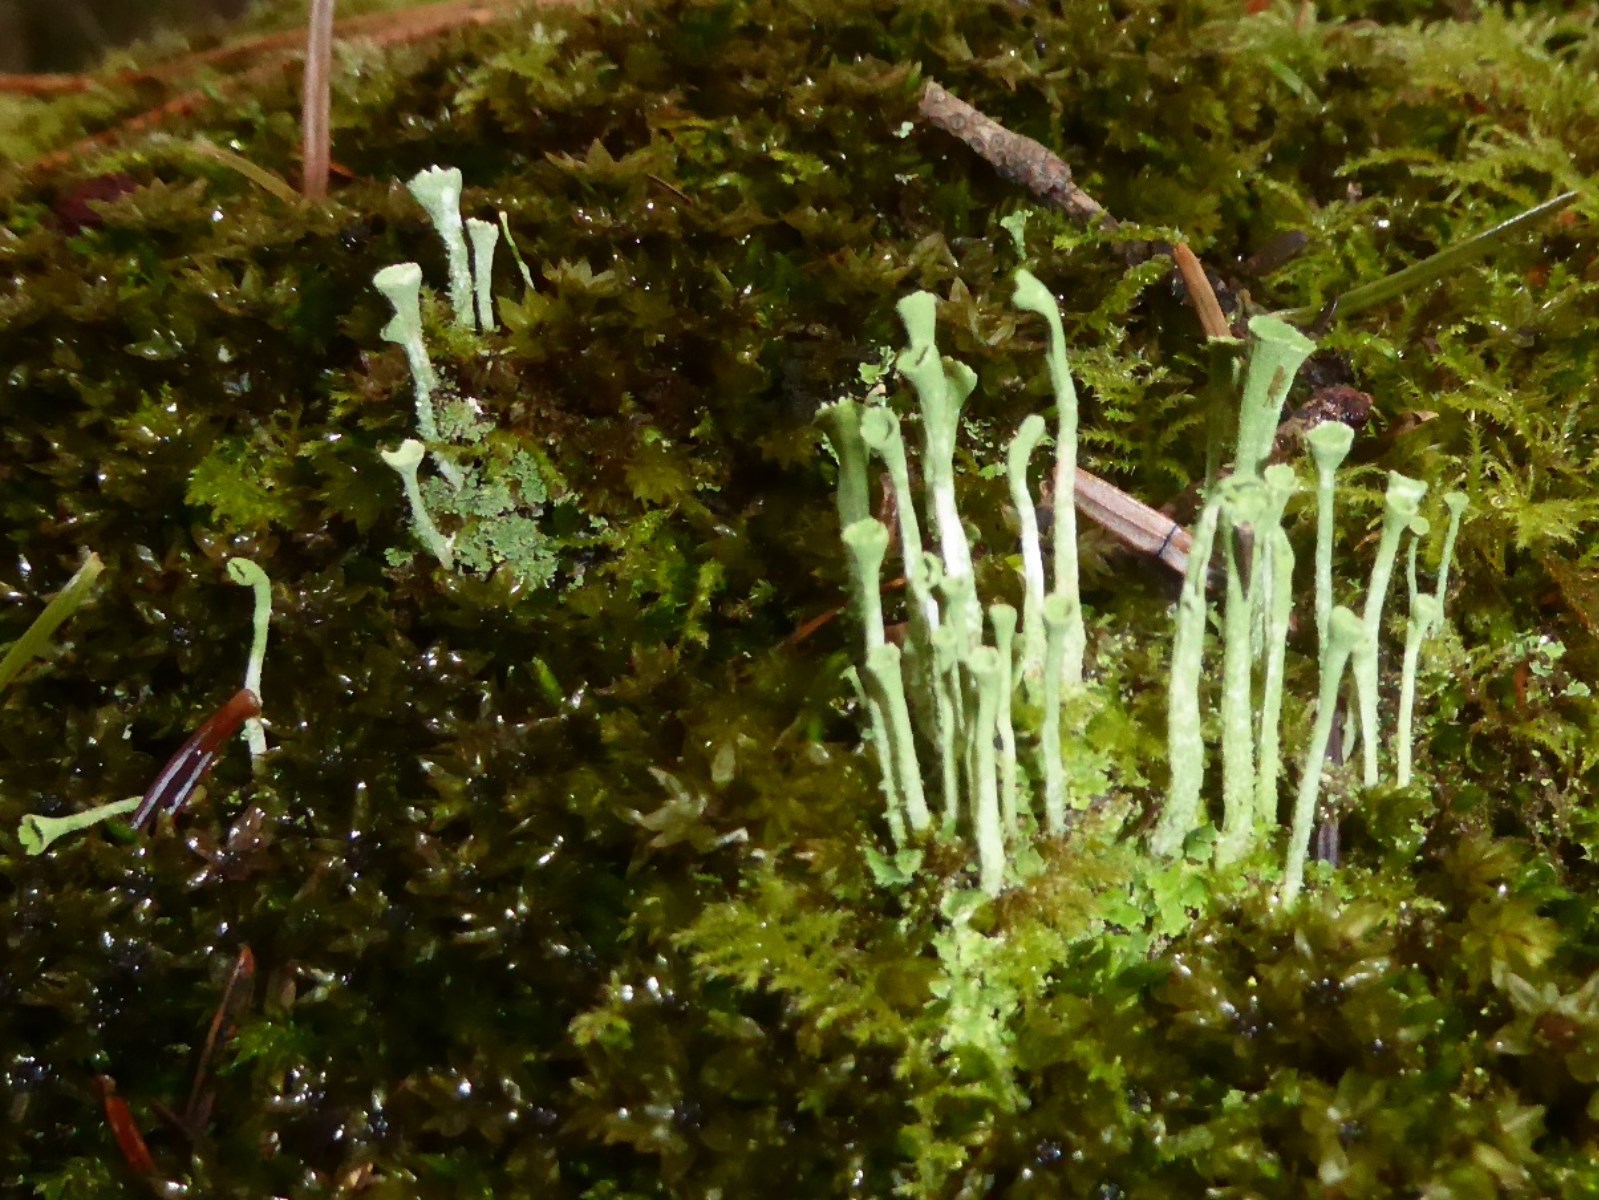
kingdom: Fungi
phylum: Ascomycota
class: Lecanoromycetes
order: Lecanorales
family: Cladoniaceae
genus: Cladonia
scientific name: Cladonia fimbriata
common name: bleggrøn bægerlav
